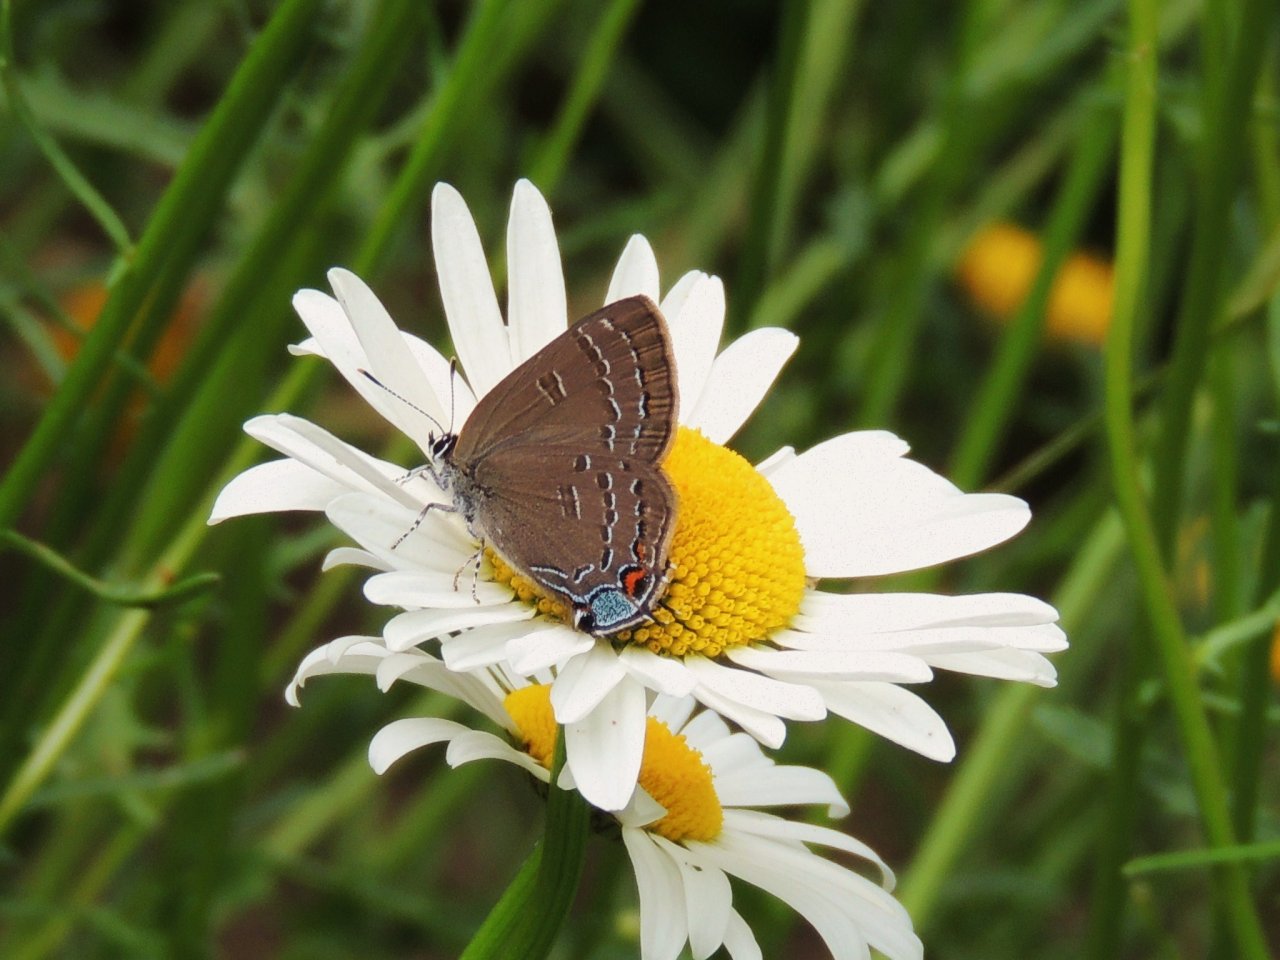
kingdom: Animalia
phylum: Arthropoda
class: Insecta
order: Lepidoptera
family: Lycaenidae
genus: Satyrium
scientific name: Satyrium calanus
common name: Banded Hairstreak
